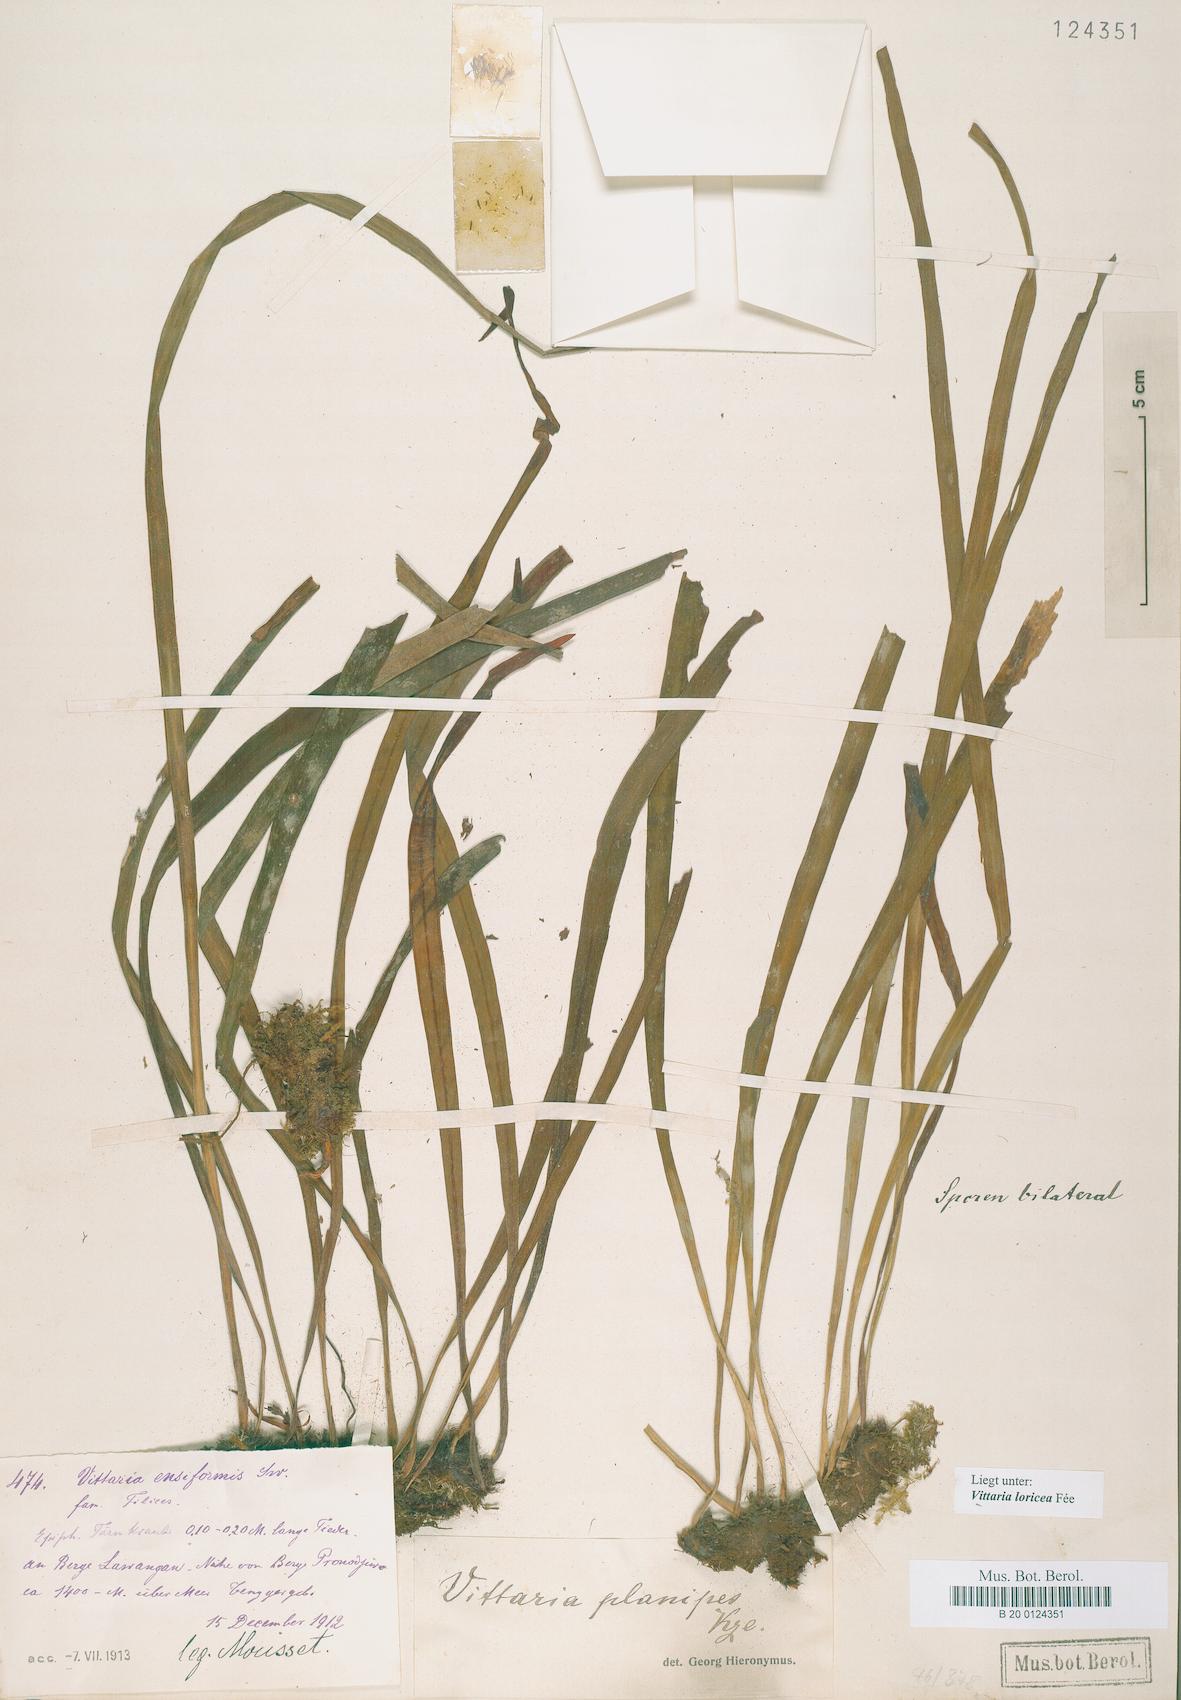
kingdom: Plantae
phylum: Tracheophyta
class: Polypodiopsida
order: Polypodiales
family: Pteridaceae
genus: Haplopteris
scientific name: Haplopteris zosterifolia
